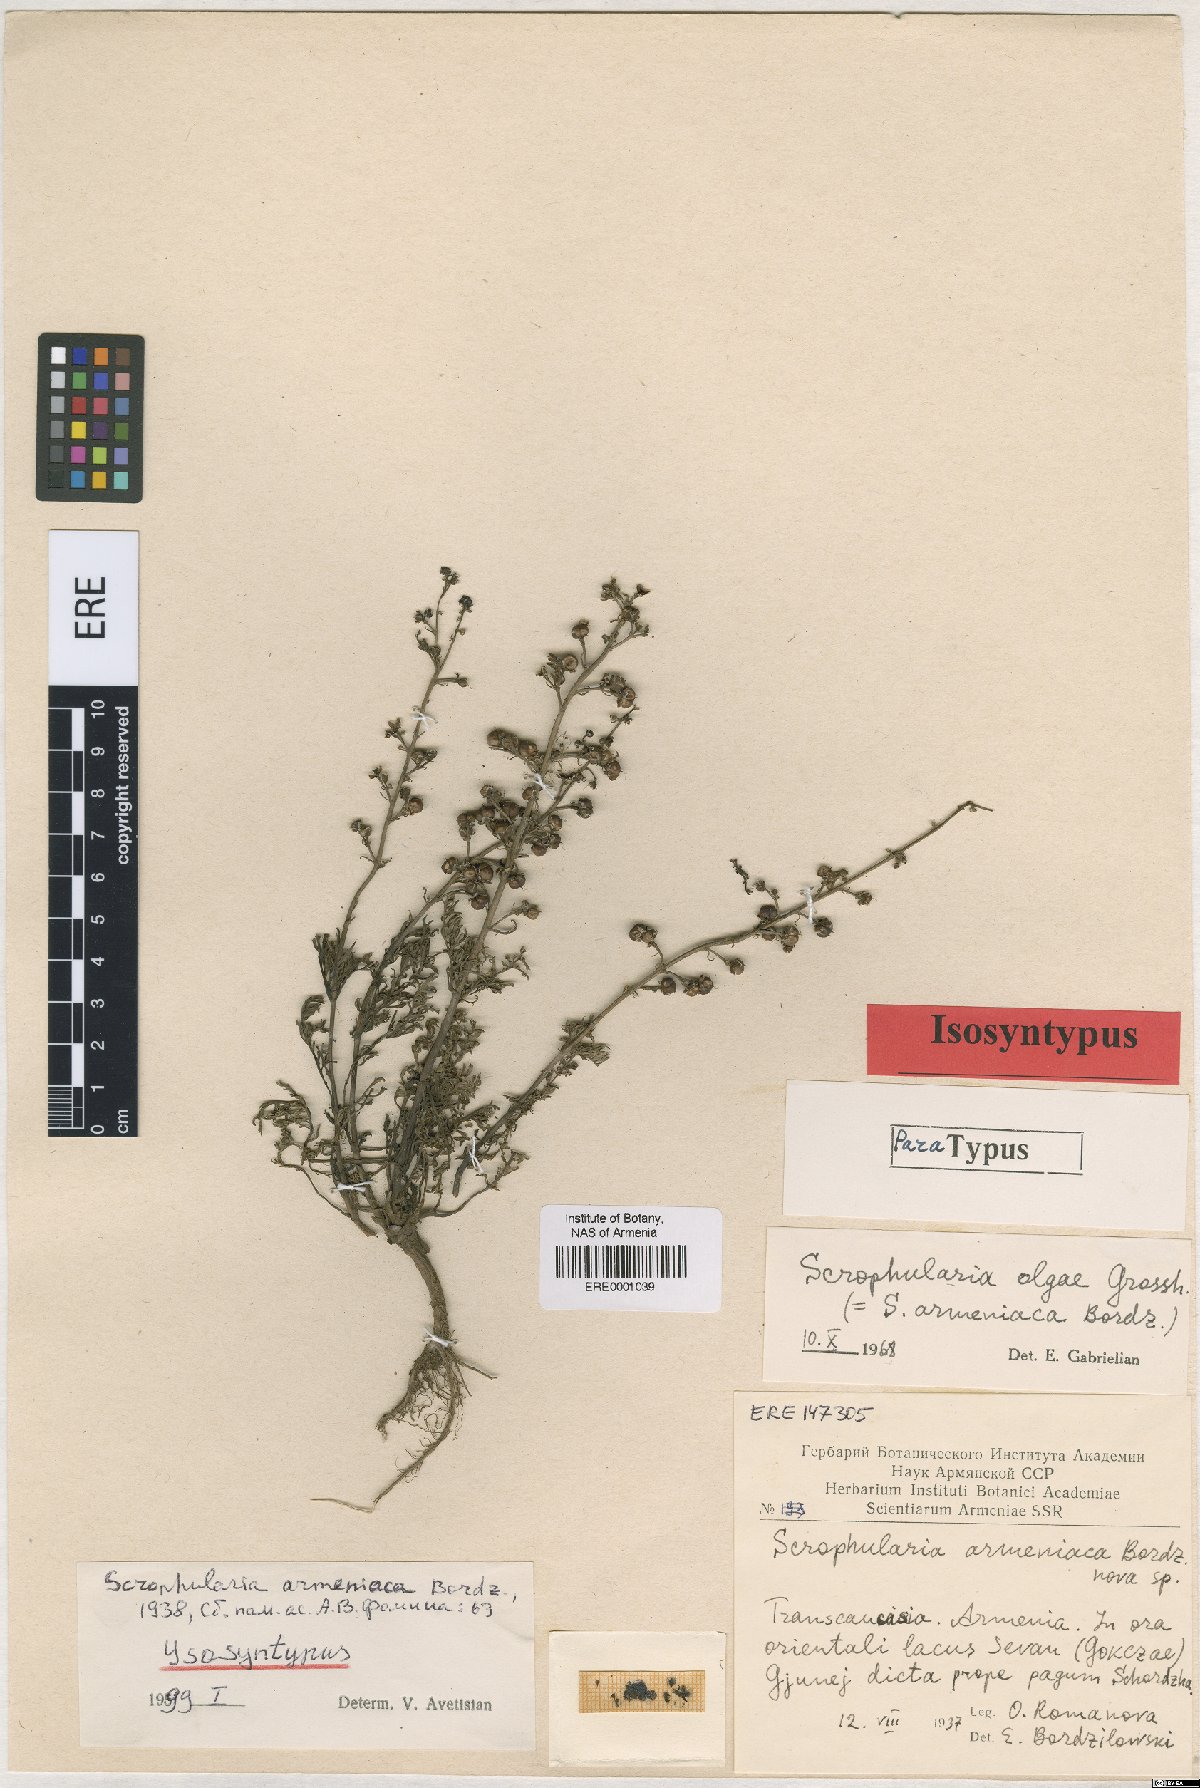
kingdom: Plantae
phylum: Tracheophyta
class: Magnoliopsida
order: Lamiales
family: Scrophulariaceae
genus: Scrophularia
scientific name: Scrophularia olgae
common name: Olga's fig-wort
